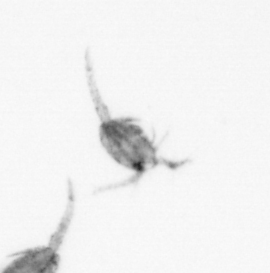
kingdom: Animalia
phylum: Arthropoda
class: Copepoda
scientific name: Copepoda
